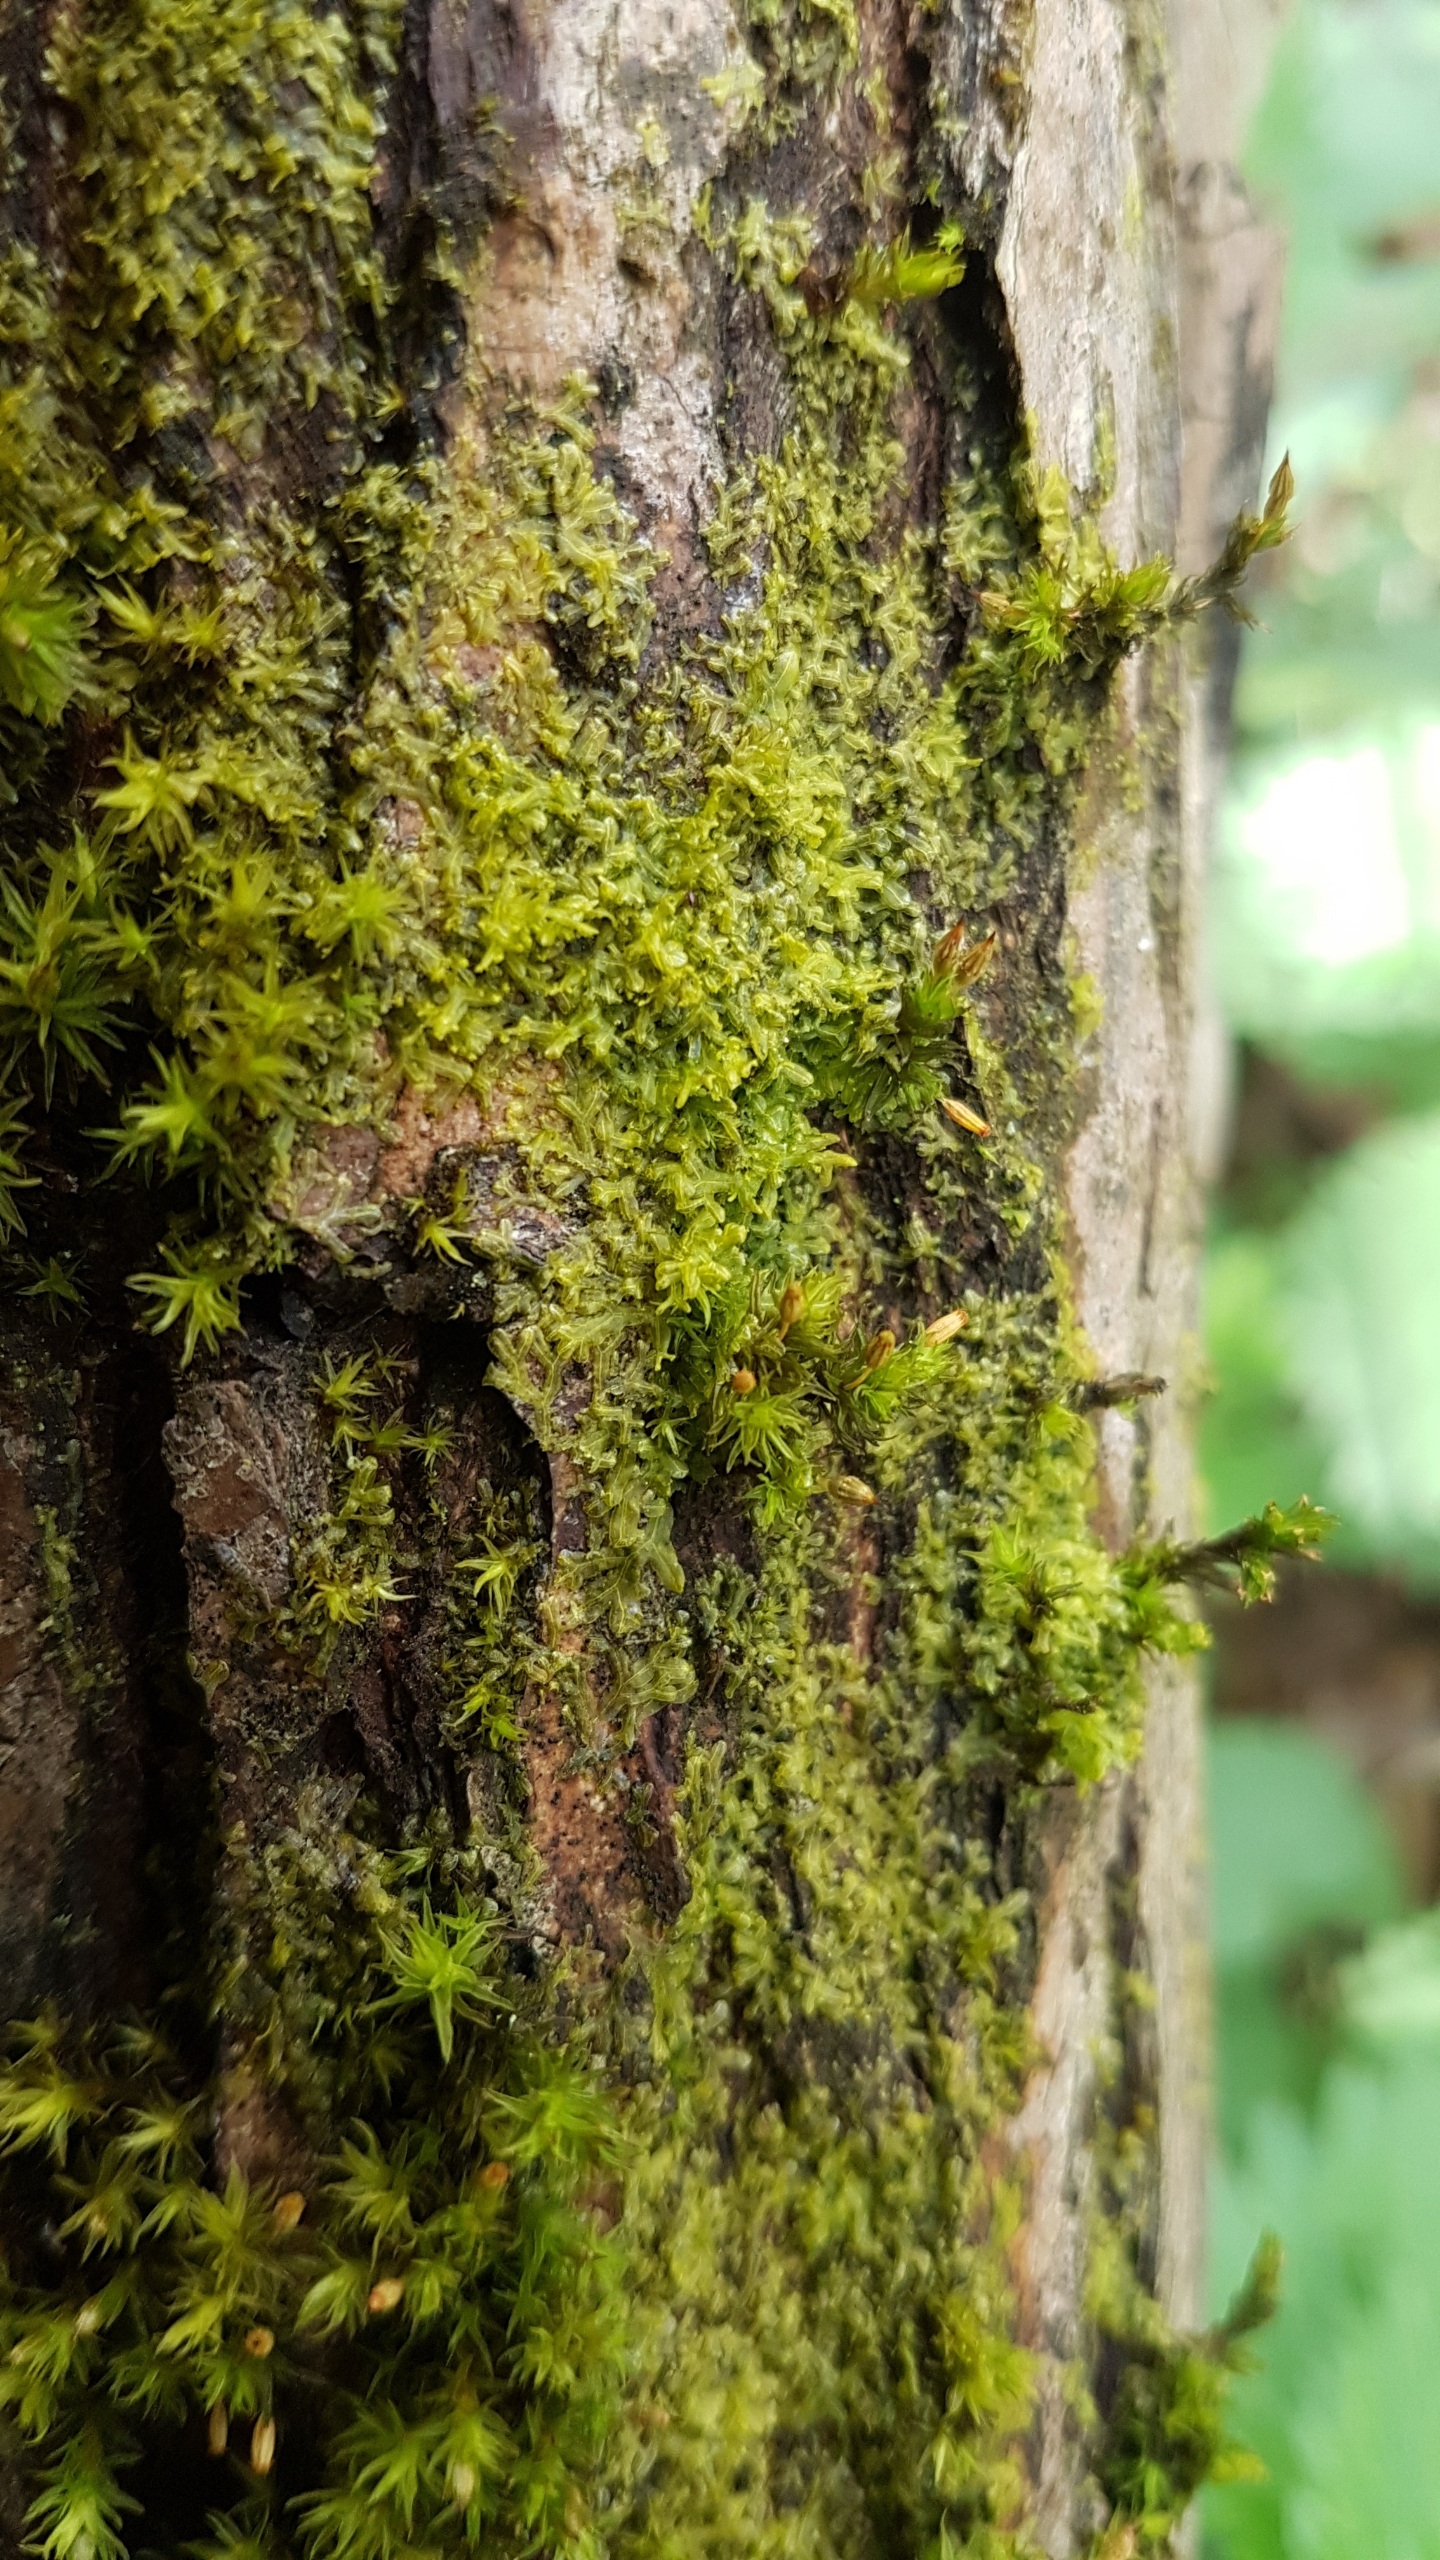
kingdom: Plantae
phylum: Marchantiophyta
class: Jungermanniopsida
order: Metzgeriales
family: Aneuraceae
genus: Riccardia
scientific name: Riccardia palmata
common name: Blågrøn gaffelløv
